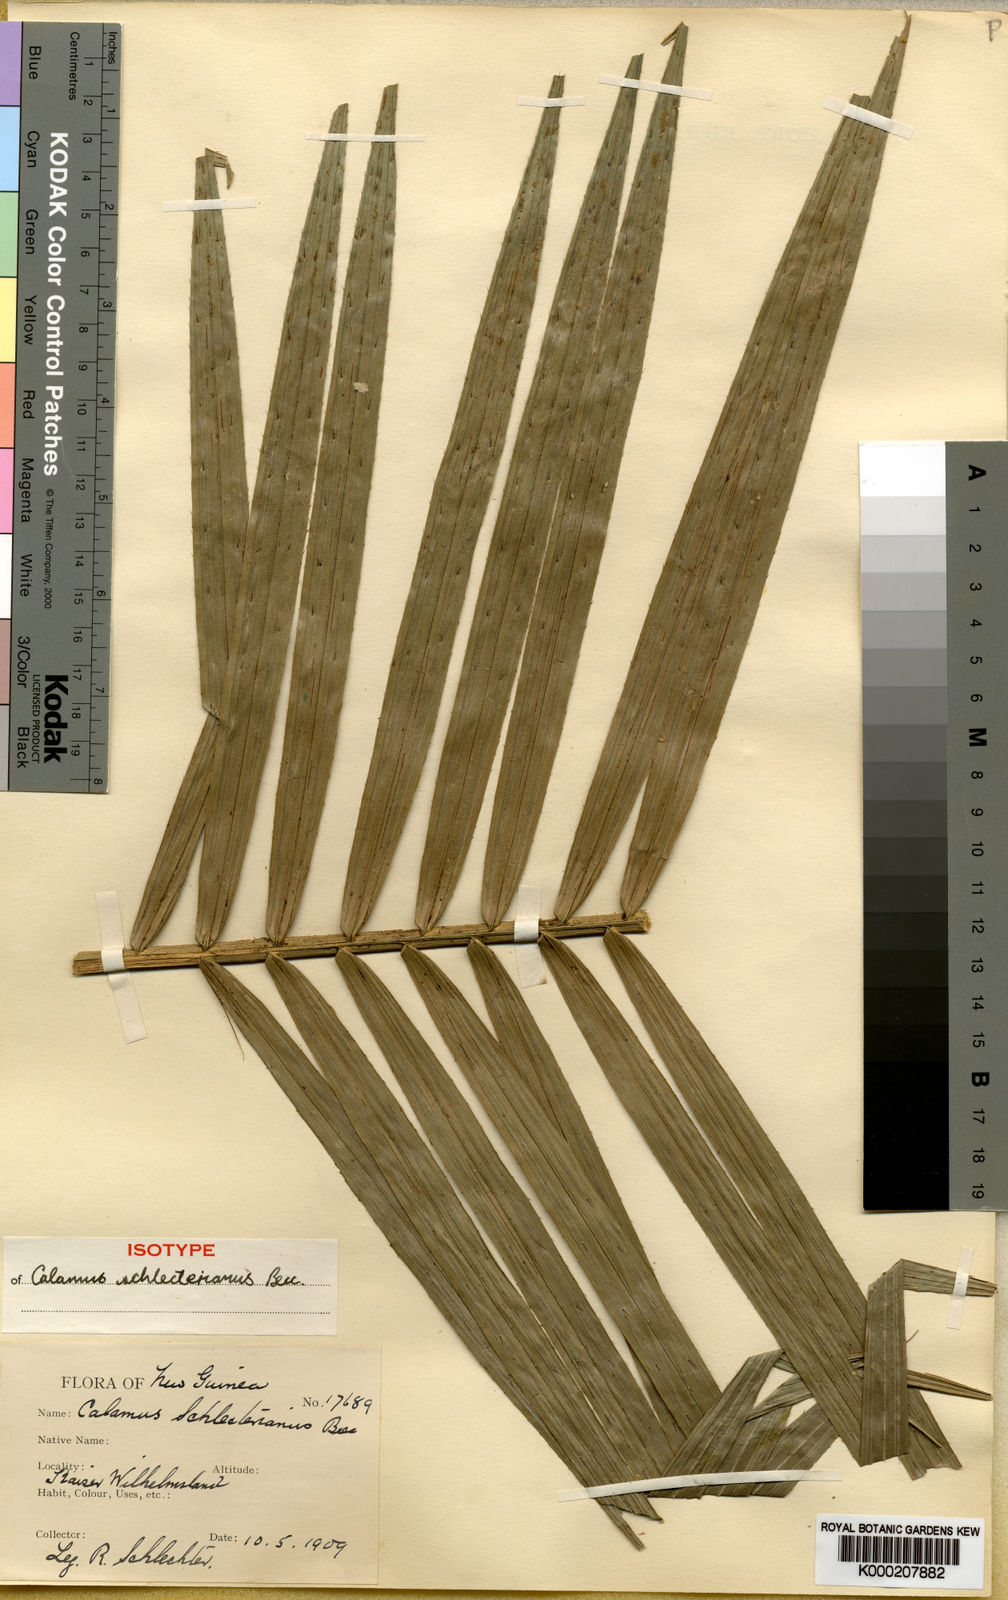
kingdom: Plantae
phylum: Tracheophyta
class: Liliopsida
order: Arecales
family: Arecaceae
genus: Calamus
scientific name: Calamus schlechterianus
